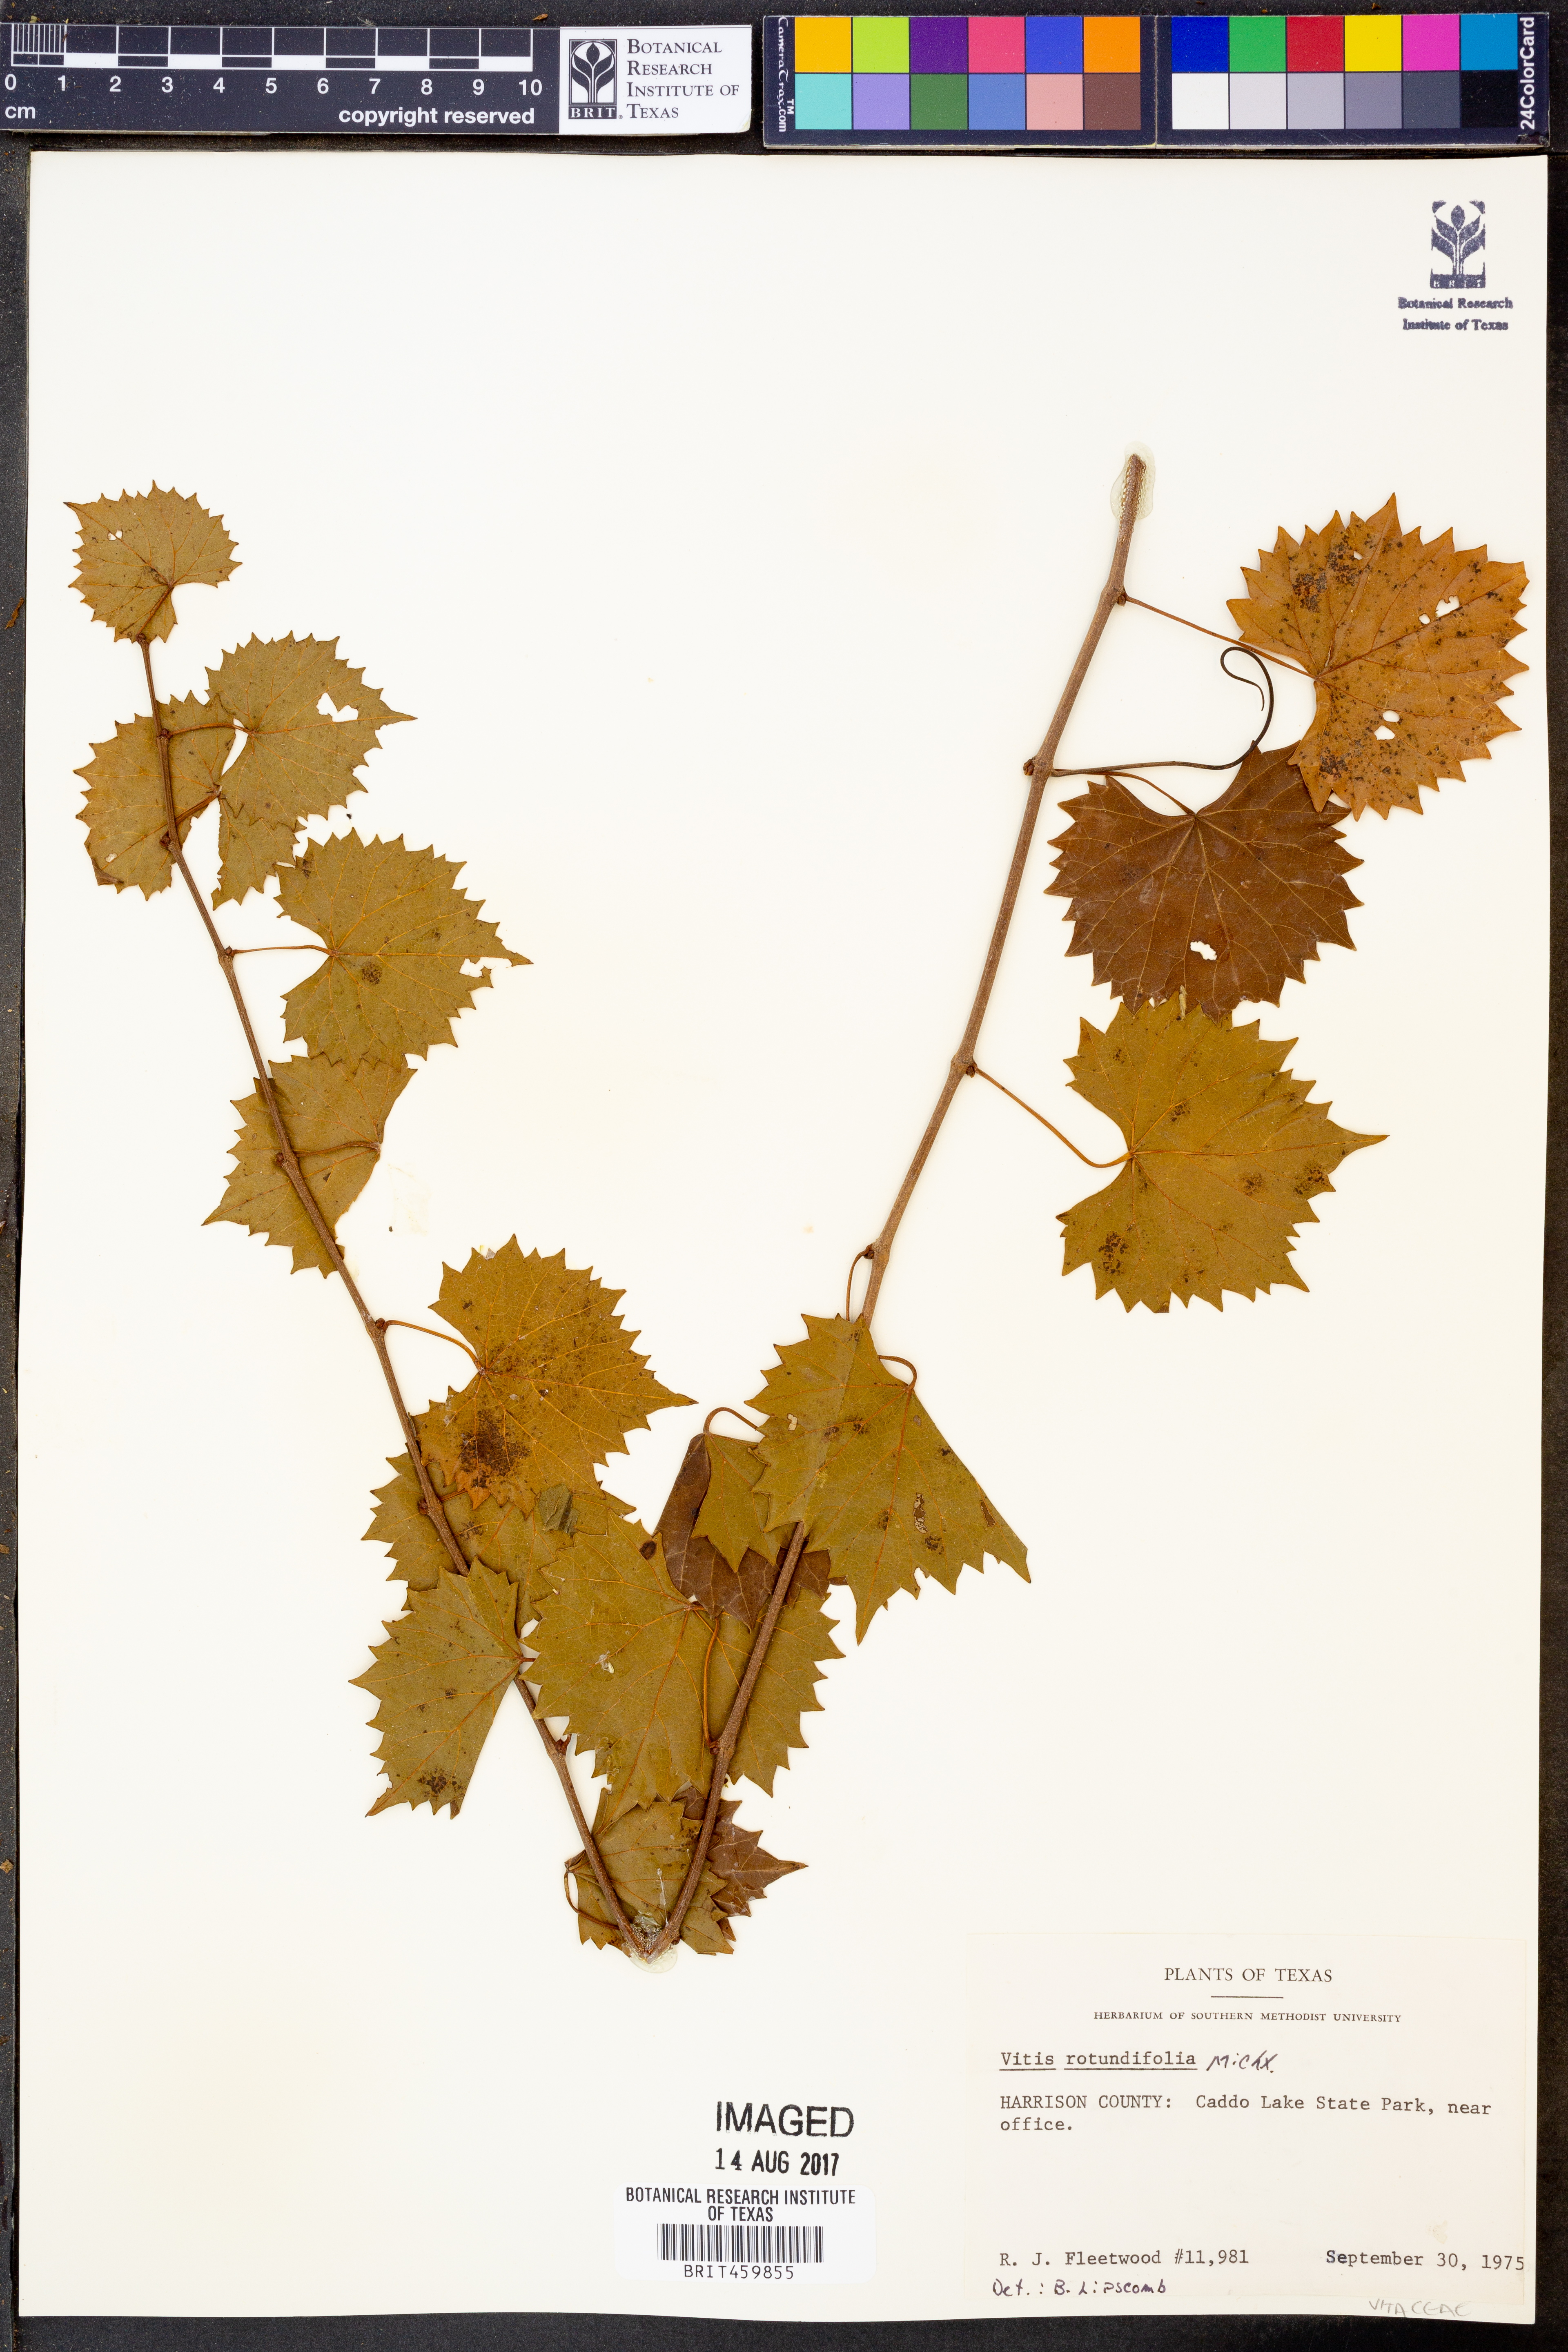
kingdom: Plantae
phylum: Tracheophyta
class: Magnoliopsida
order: Vitales
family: Vitaceae
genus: Vitis
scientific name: Vitis rotundifolia
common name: Muscadine grape
